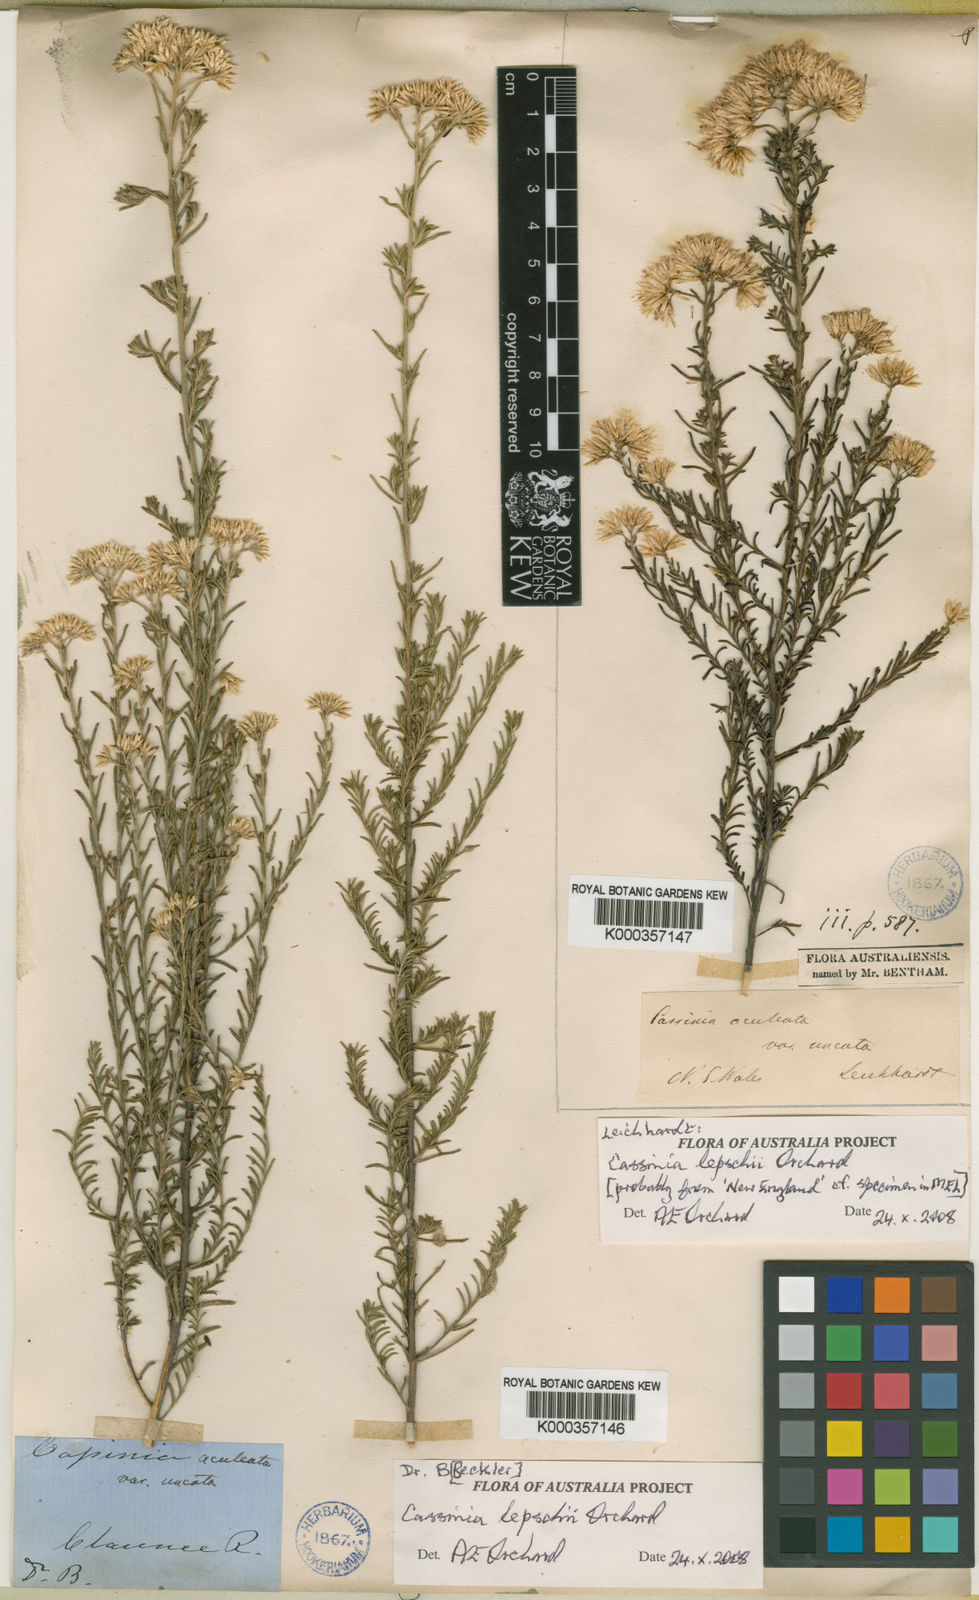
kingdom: Plantae
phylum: Tracheophyta
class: Magnoliopsida
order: Asterales
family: Asteraceae
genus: Cassinia
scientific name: Cassinia lepschii
